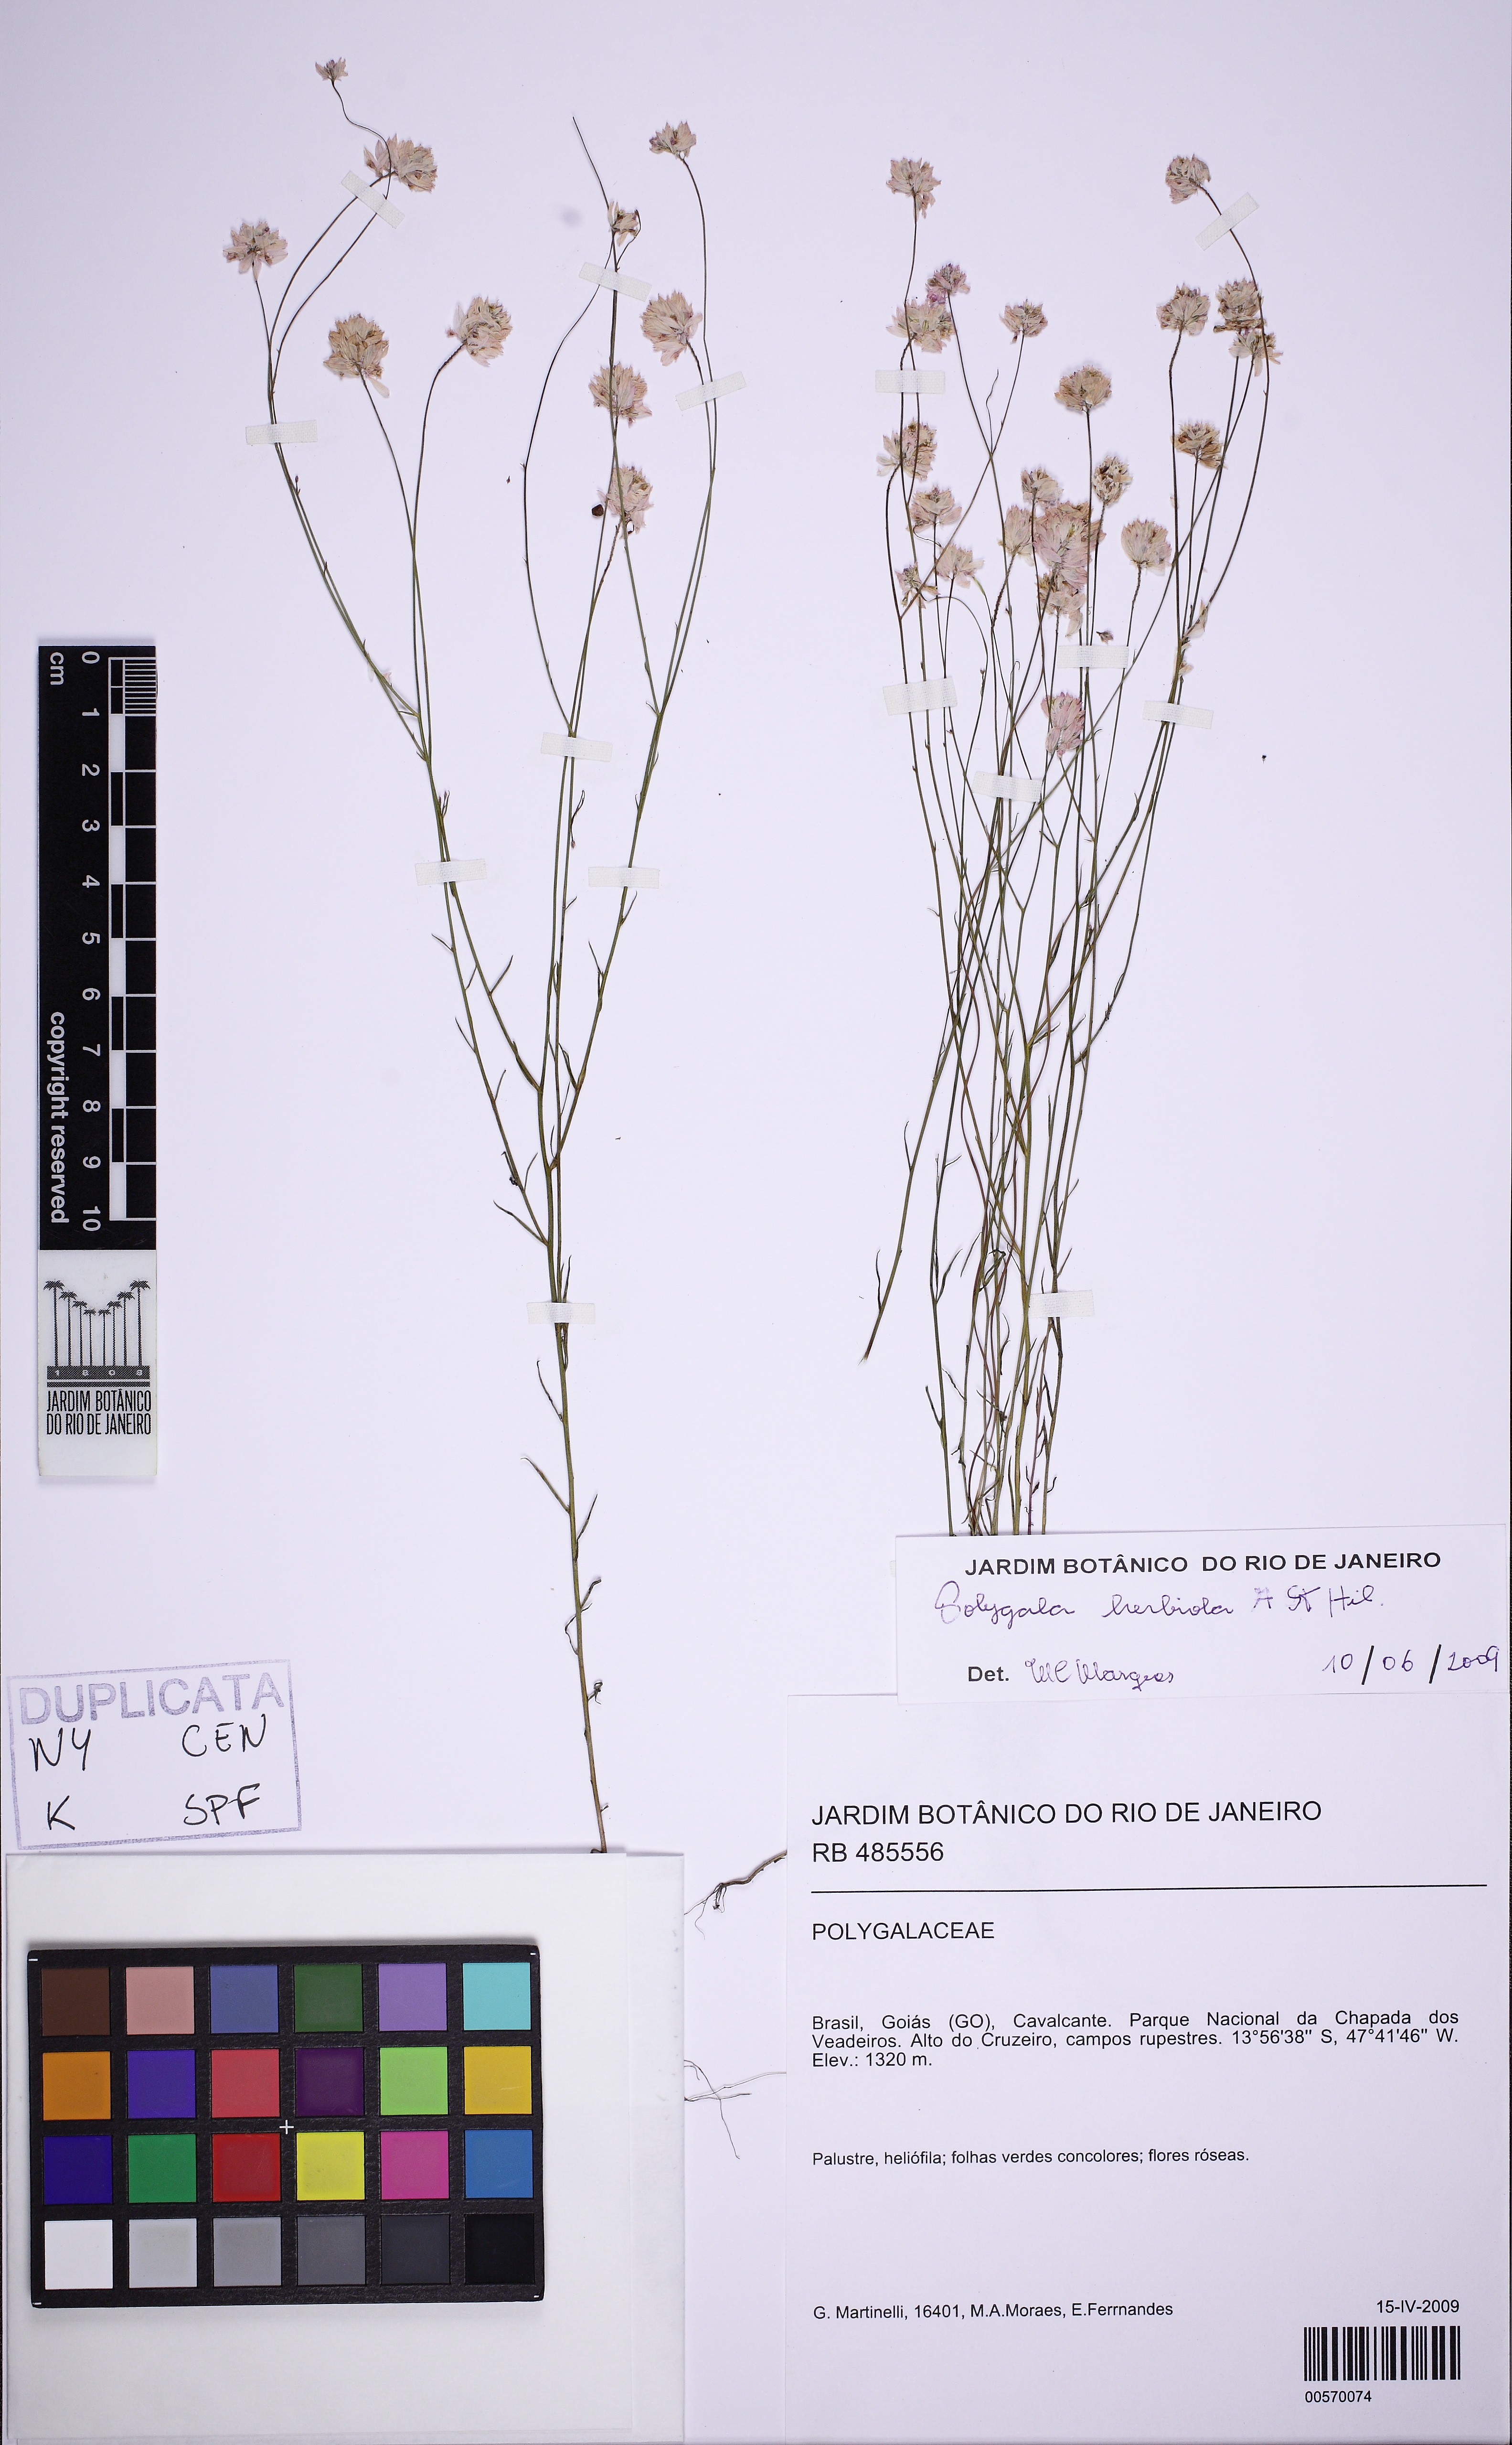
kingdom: Plantae
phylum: Tracheophyta
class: Magnoliopsida
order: Fabales
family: Polygalaceae
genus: Polygala
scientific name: Polygala herbiola
